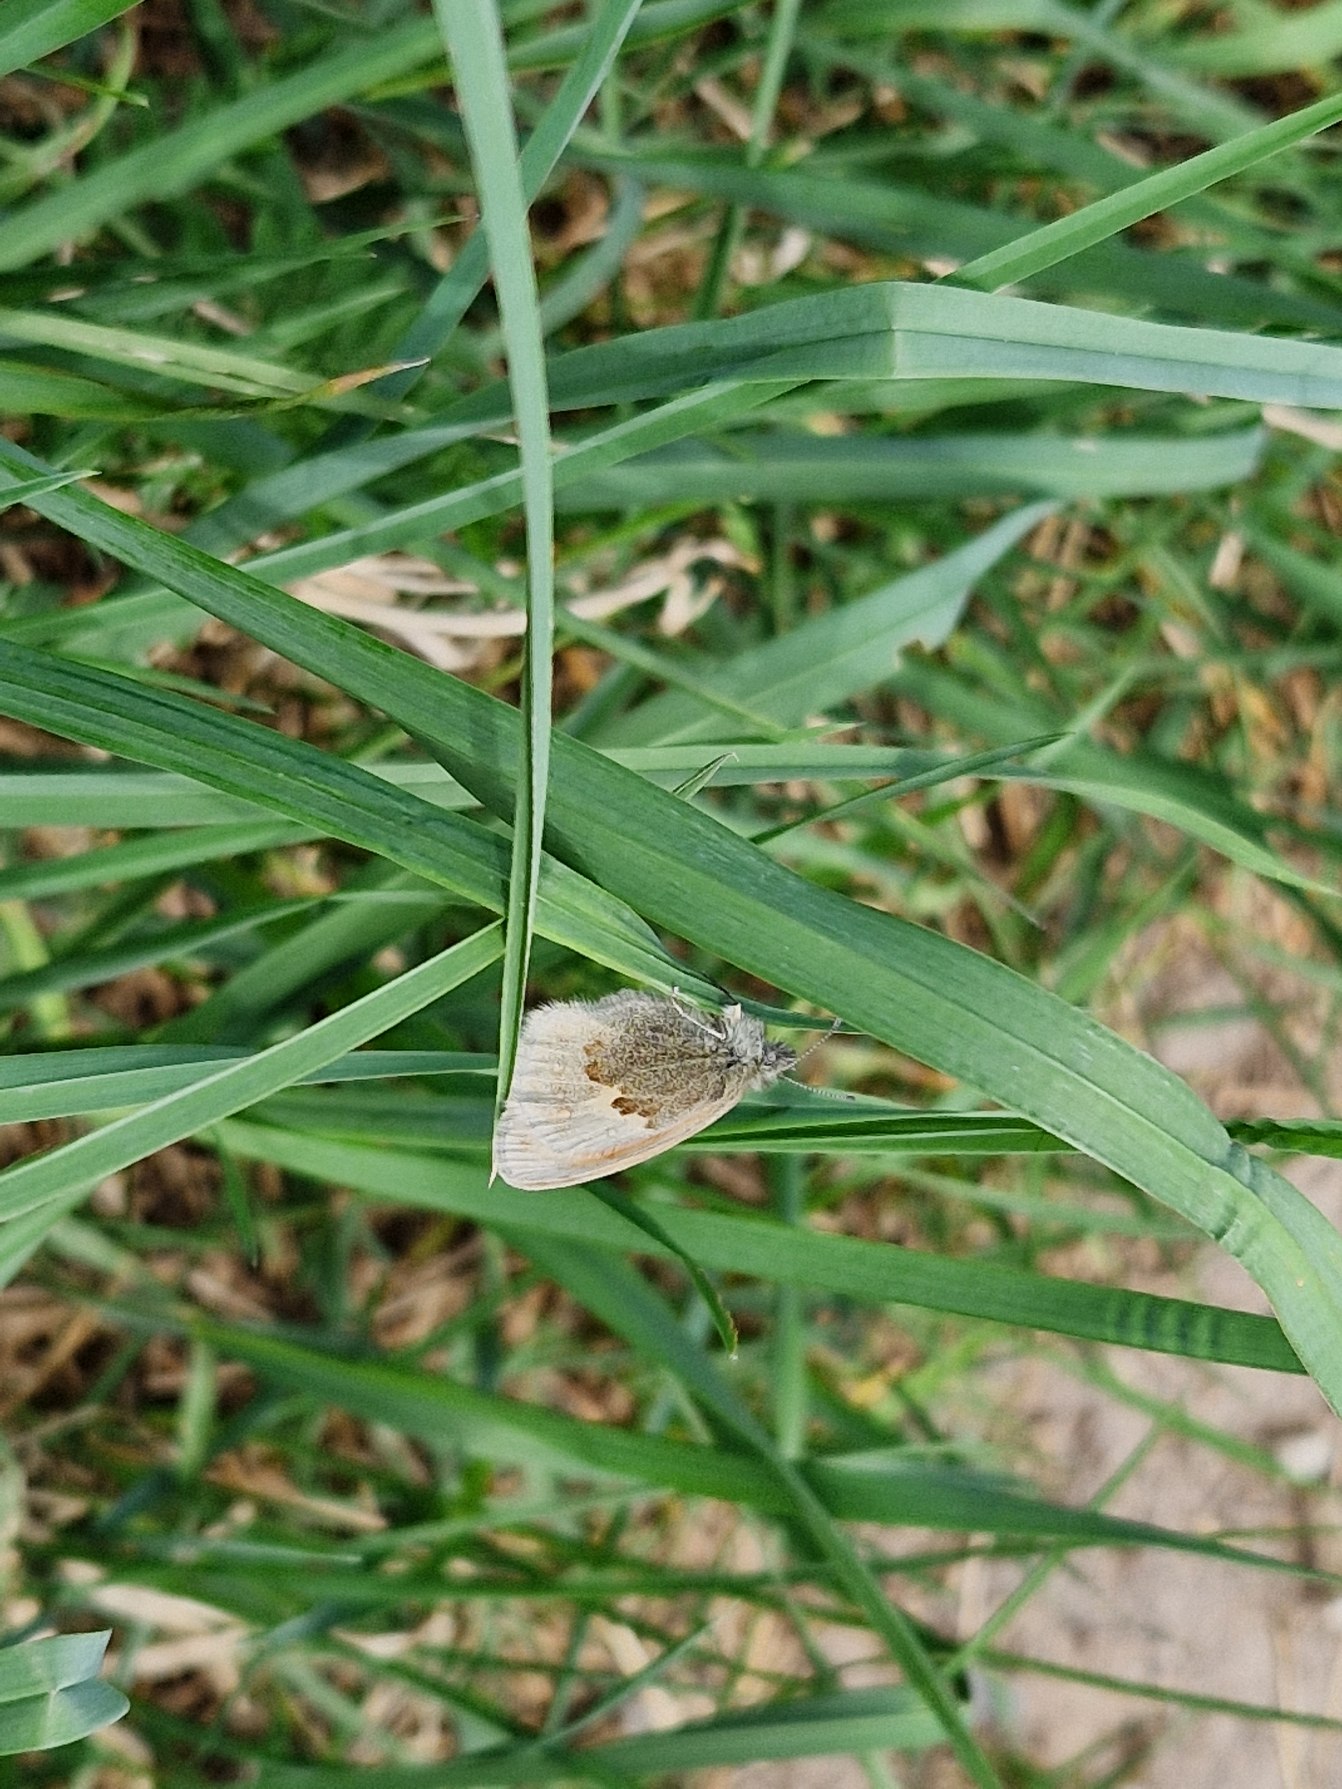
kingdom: Animalia
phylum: Arthropoda
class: Insecta
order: Lepidoptera
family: Nymphalidae
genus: Coenonympha
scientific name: Coenonympha pamphilus
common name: Okkergul randøje
